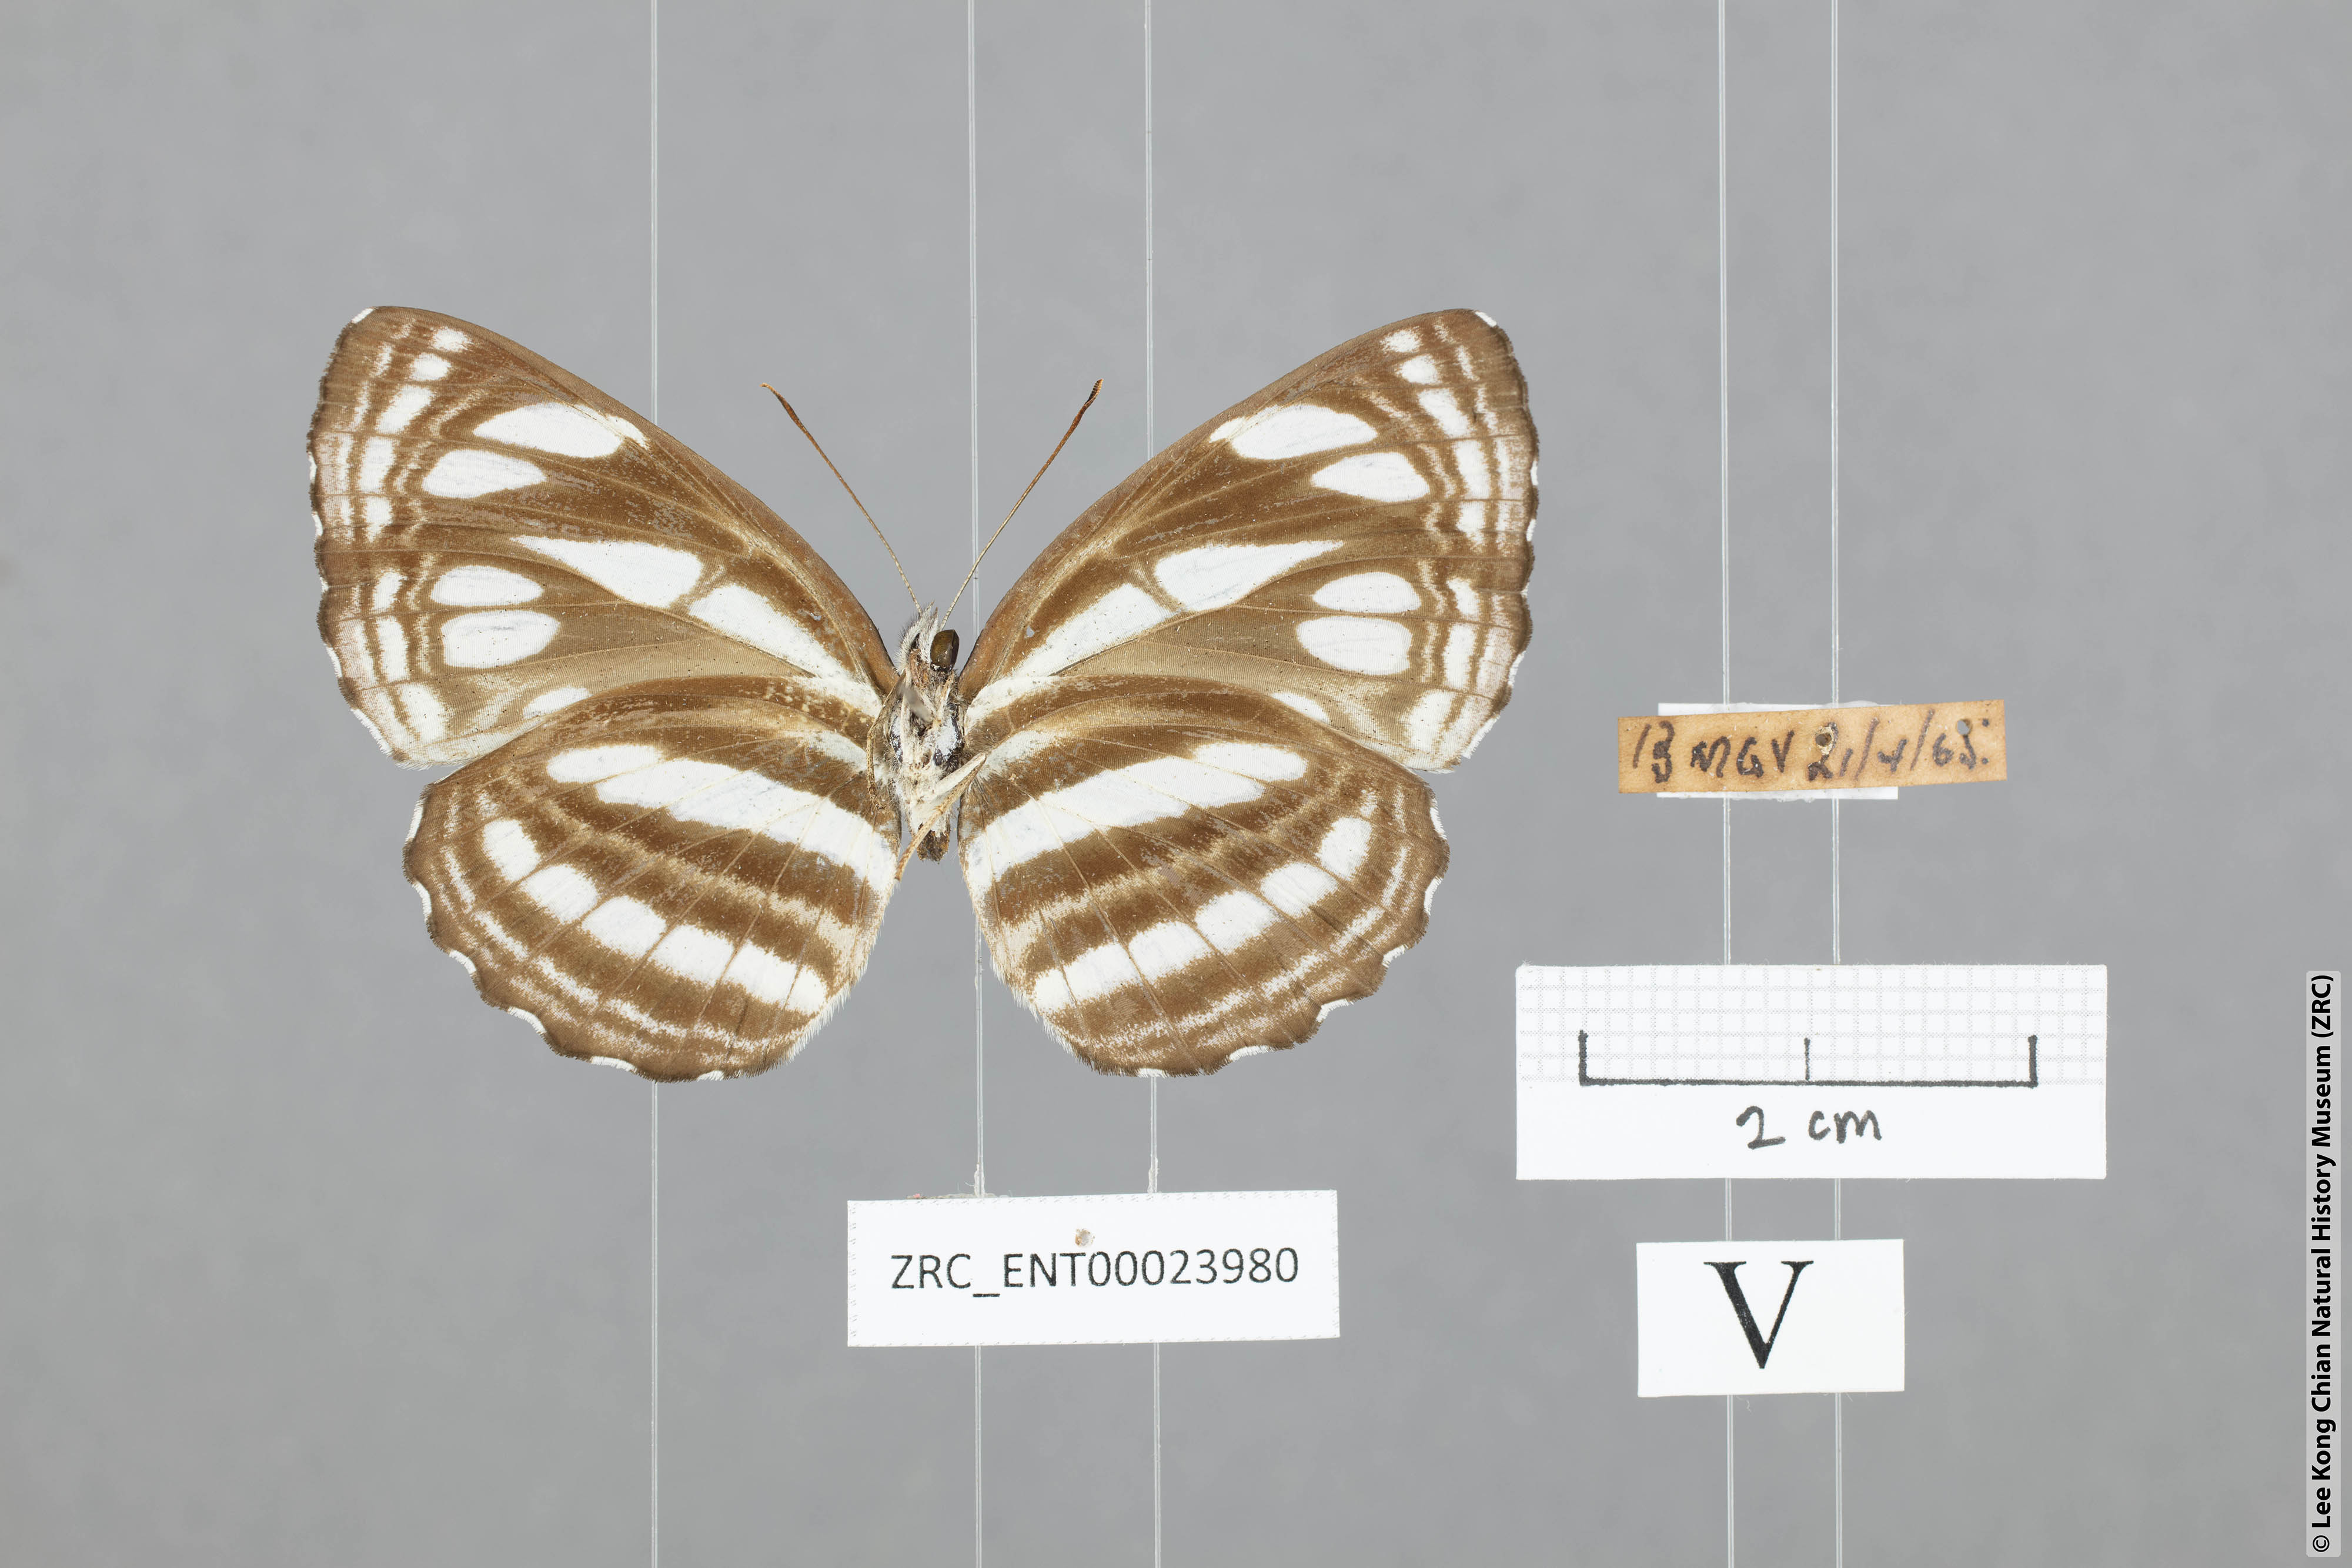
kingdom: Animalia
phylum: Arthropoda
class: Insecta
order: Lepidoptera
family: Nymphalidae
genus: Neptis
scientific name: Neptis duryodana
